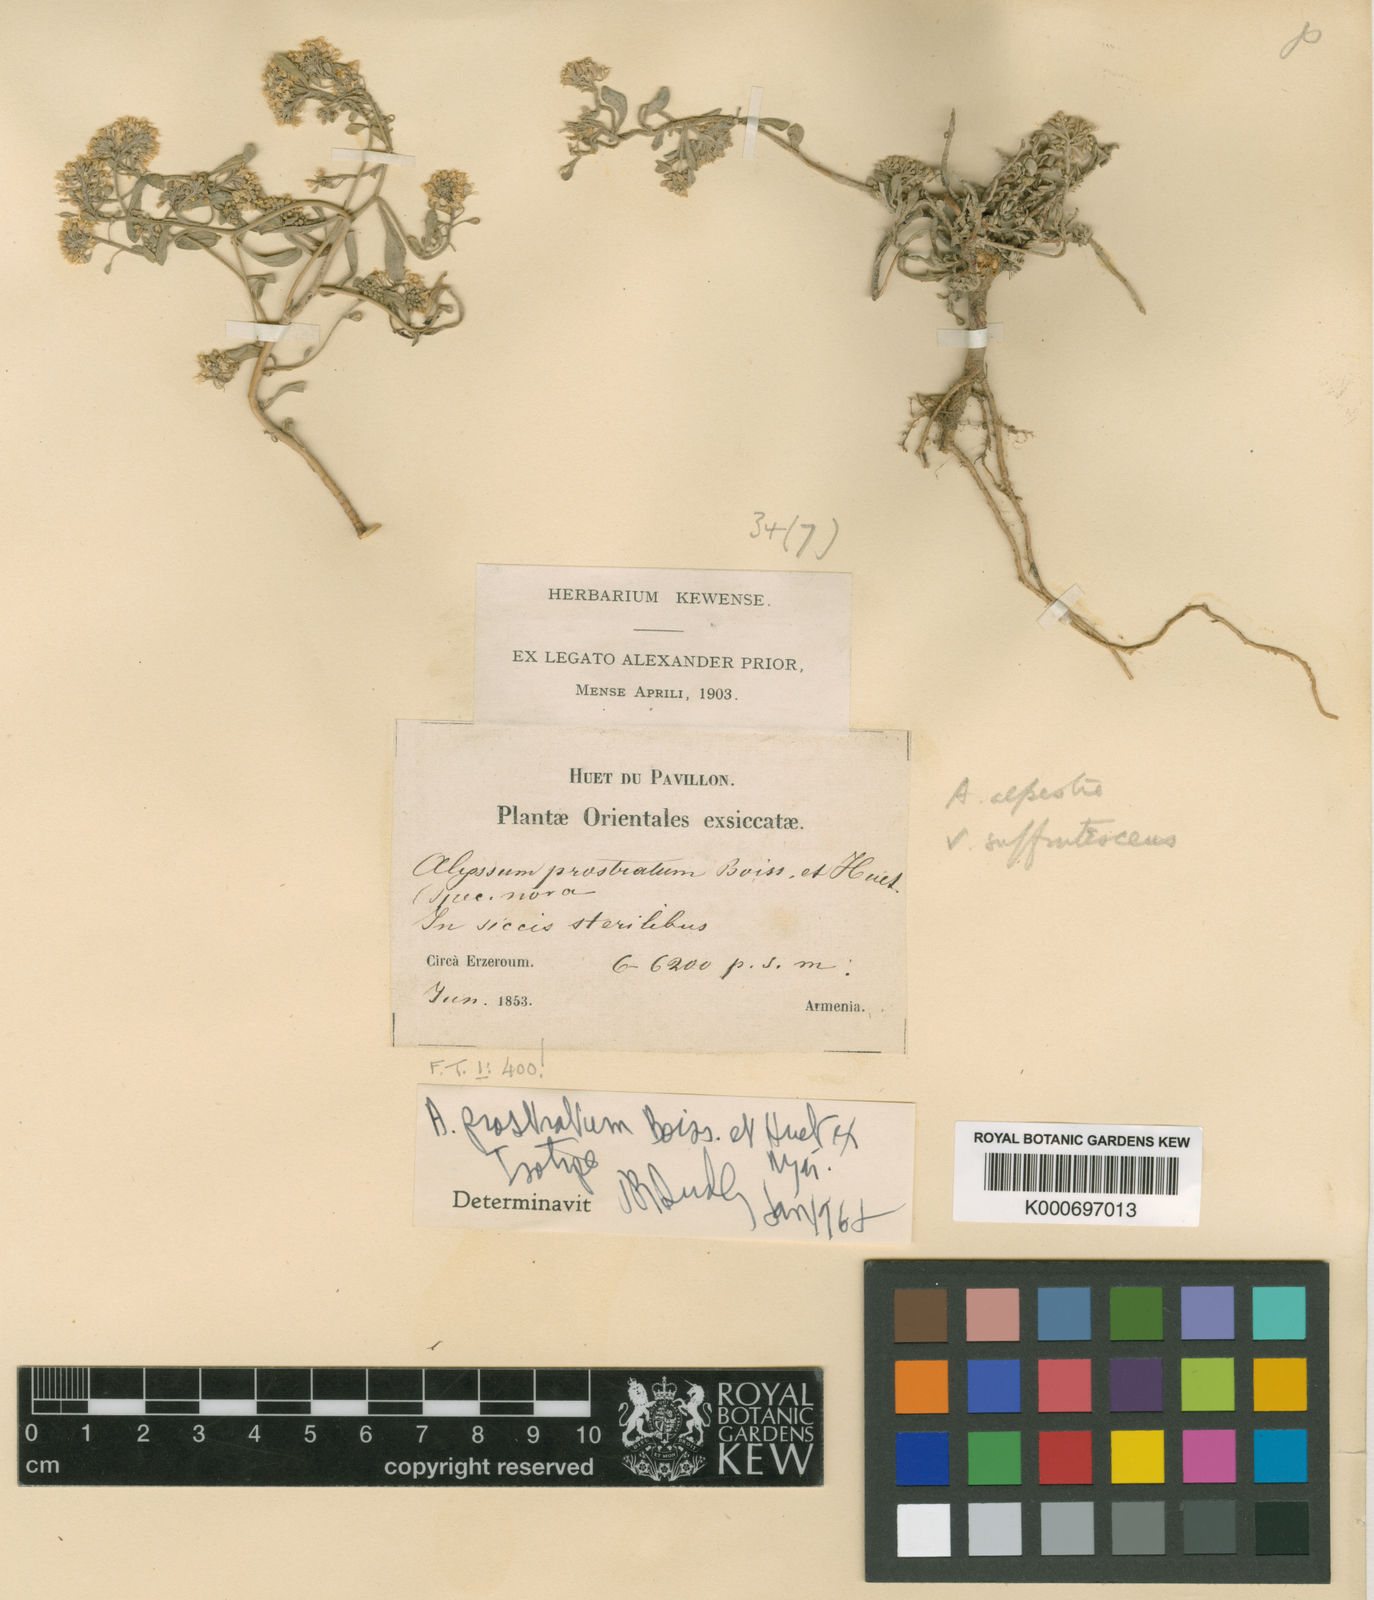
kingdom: Plantae
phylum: Tracheophyta
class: Magnoliopsida
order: Brassicales
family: Brassicaceae
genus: Alyssum
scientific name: Alyssum
